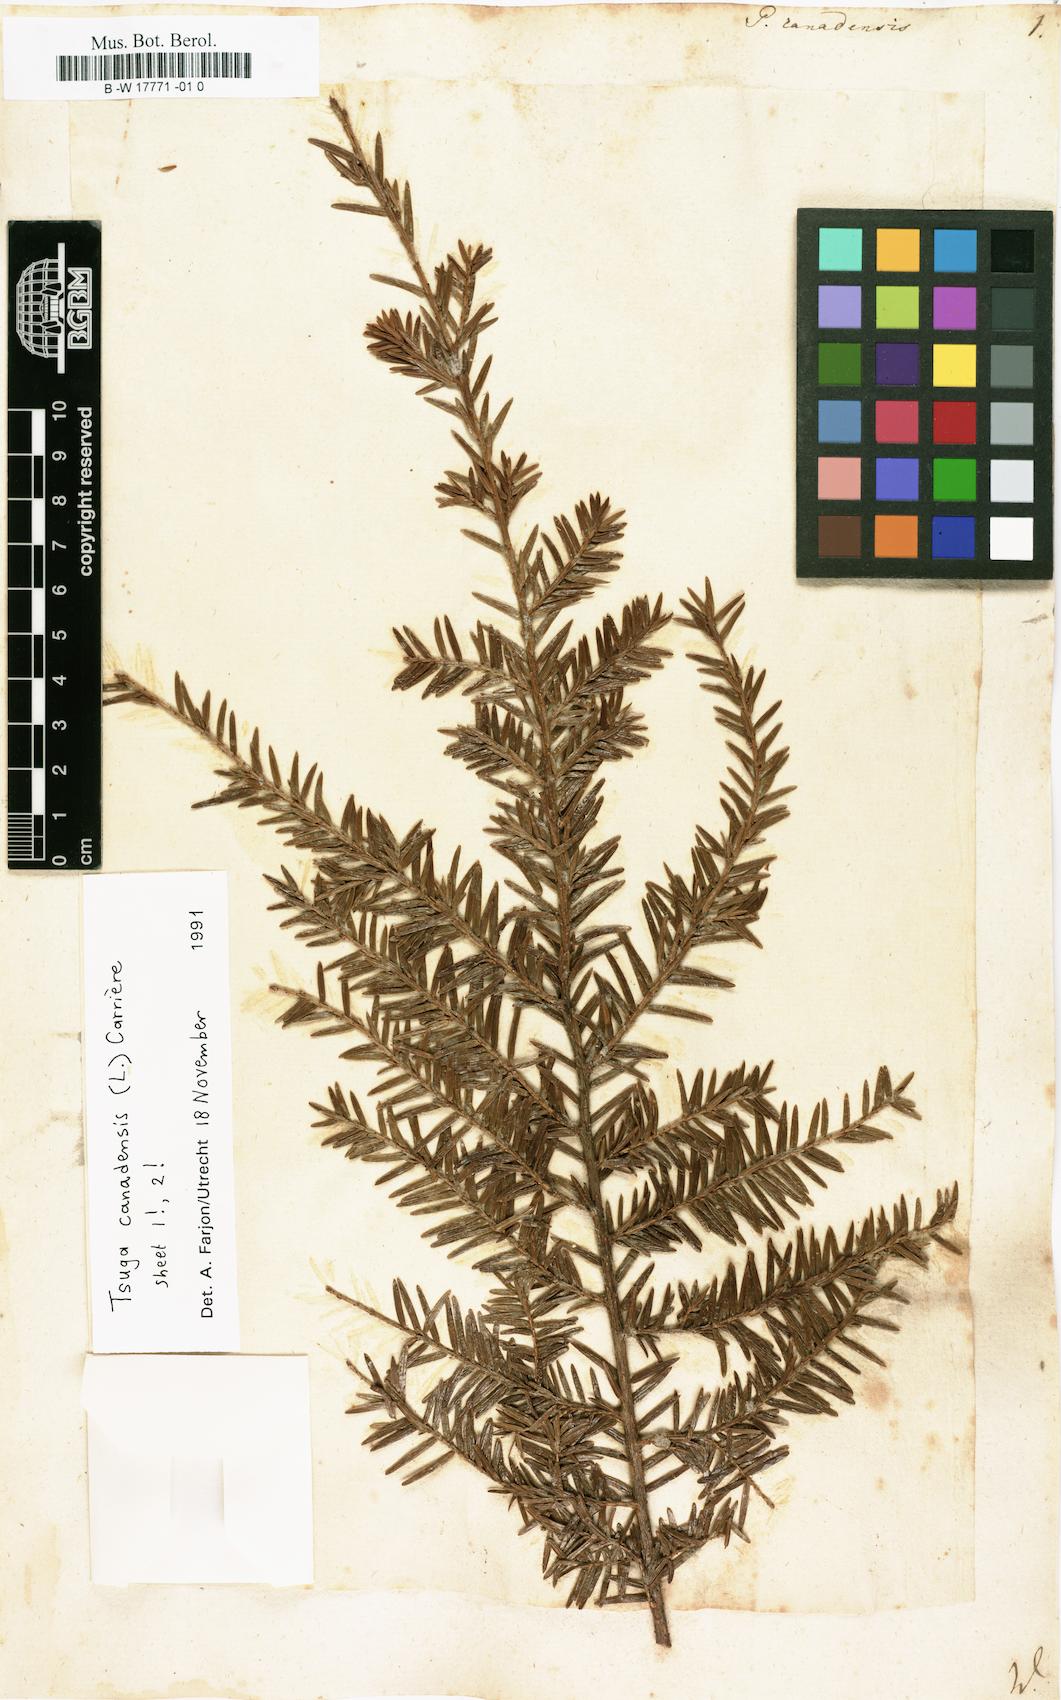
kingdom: Plantae
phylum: Tracheophyta
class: Pinopsida
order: Pinales
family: Pinaceae
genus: Tsuga
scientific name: Tsuga canadensis
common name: Eastern hemlock
